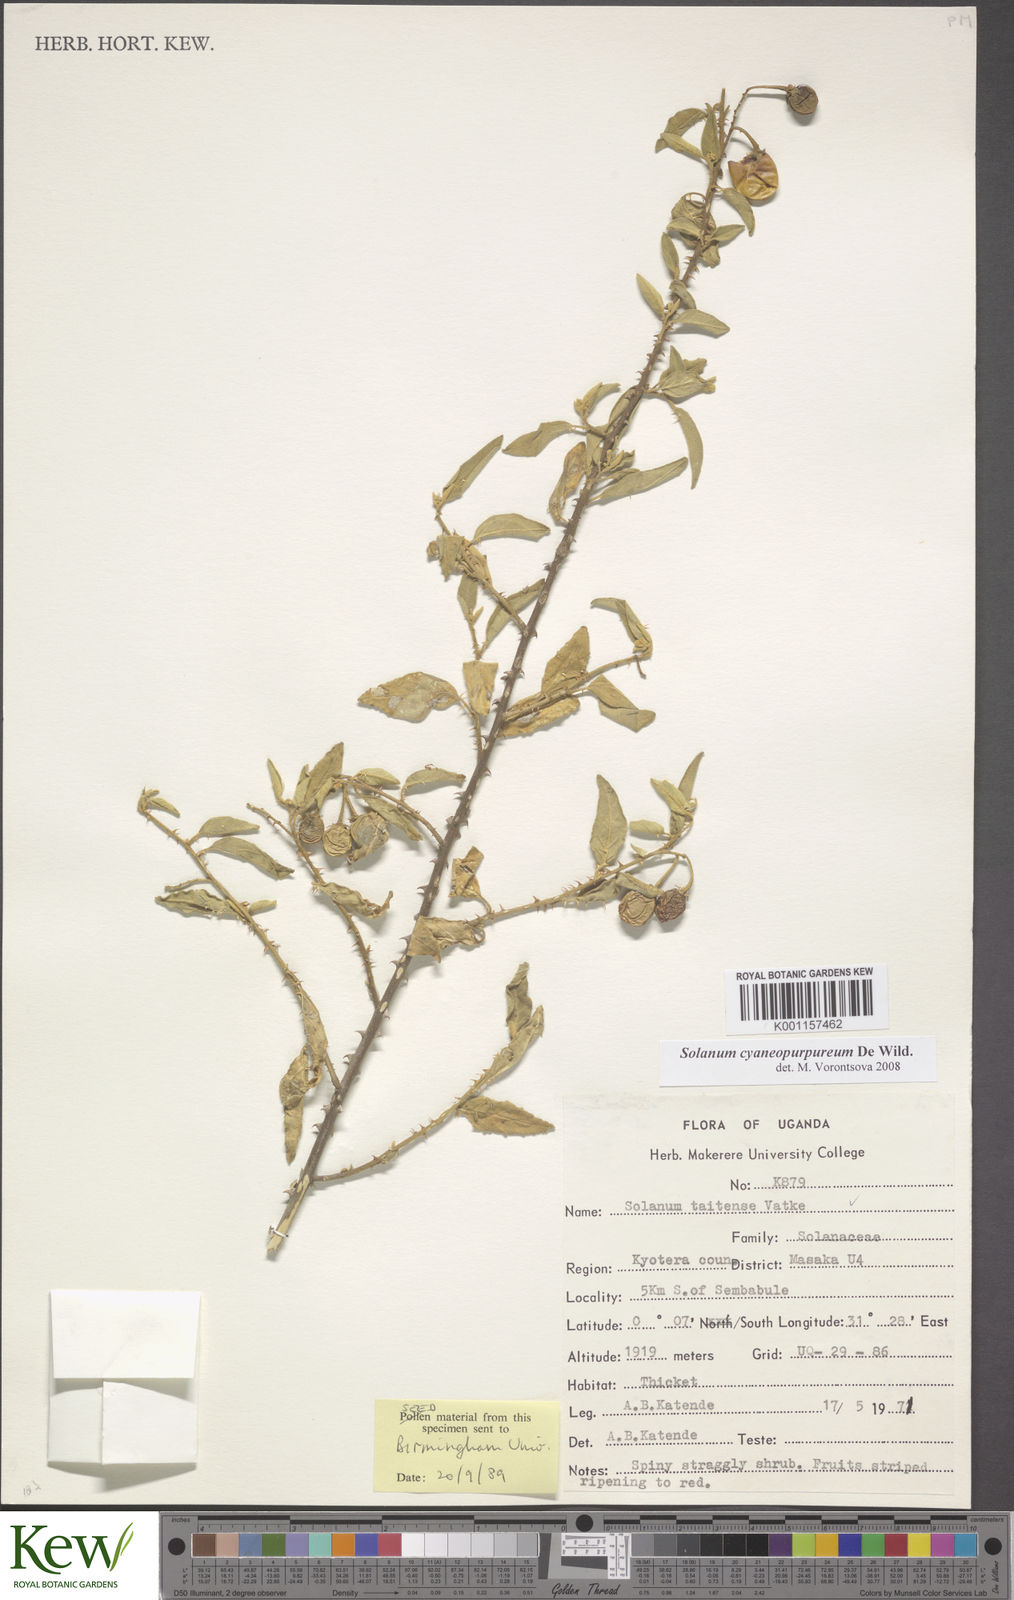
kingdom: Plantae
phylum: Tracheophyta
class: Magnoliopsida
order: Solanales
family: Solanaceae
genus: Solanum
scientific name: Solanum cyaneopurpureum
